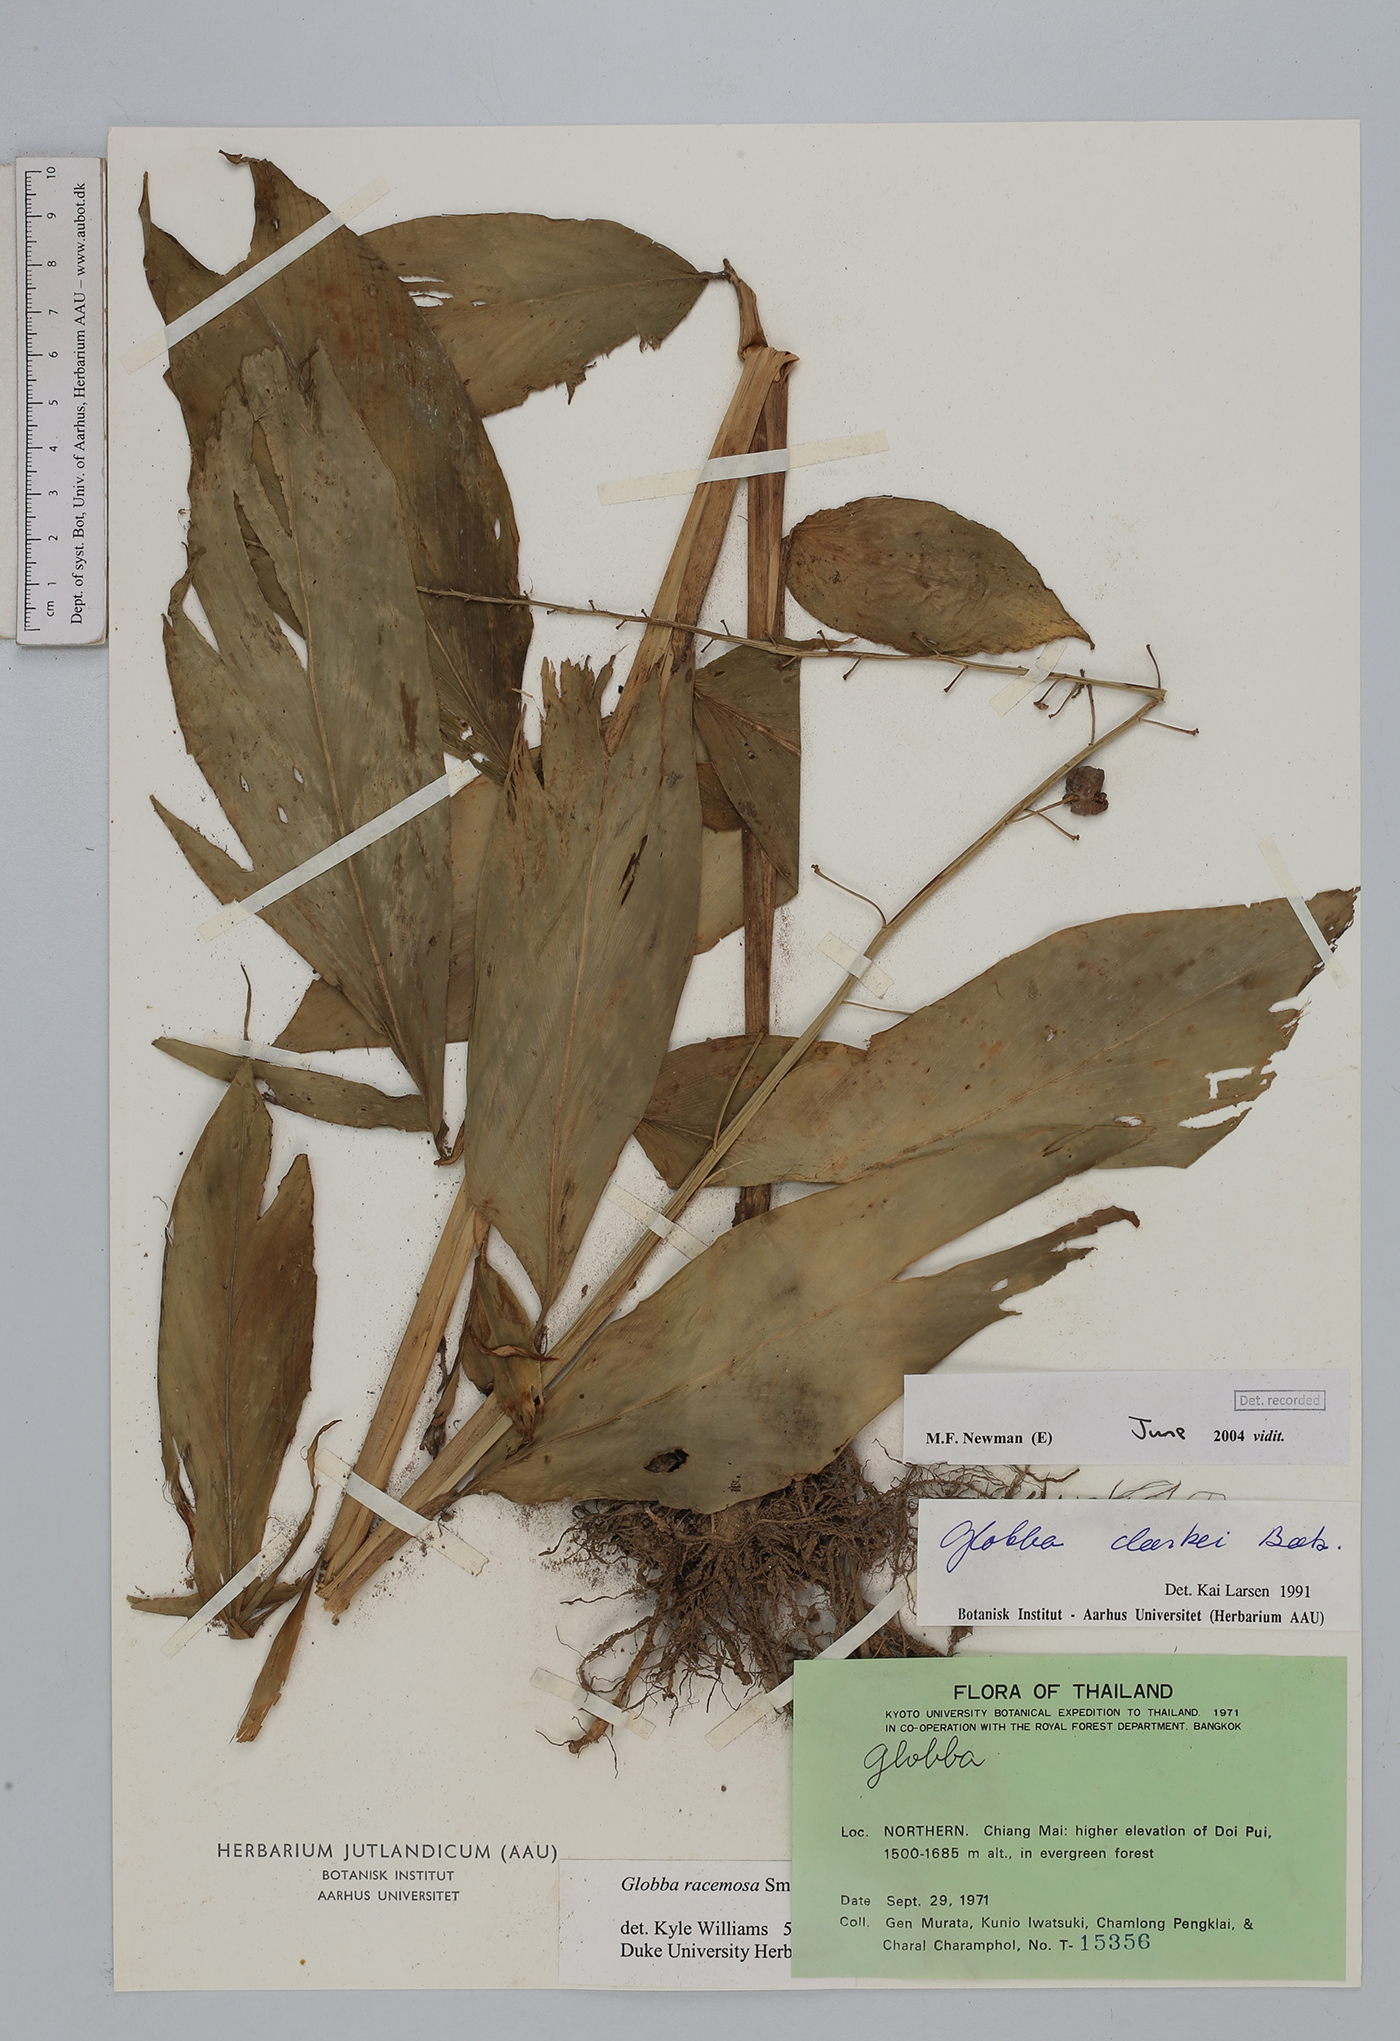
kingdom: Plantae
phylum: Tracheophyta
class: Liliopsida
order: Zingiberales
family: Zingiberaceae
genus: Globba
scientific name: Globba racemosa
